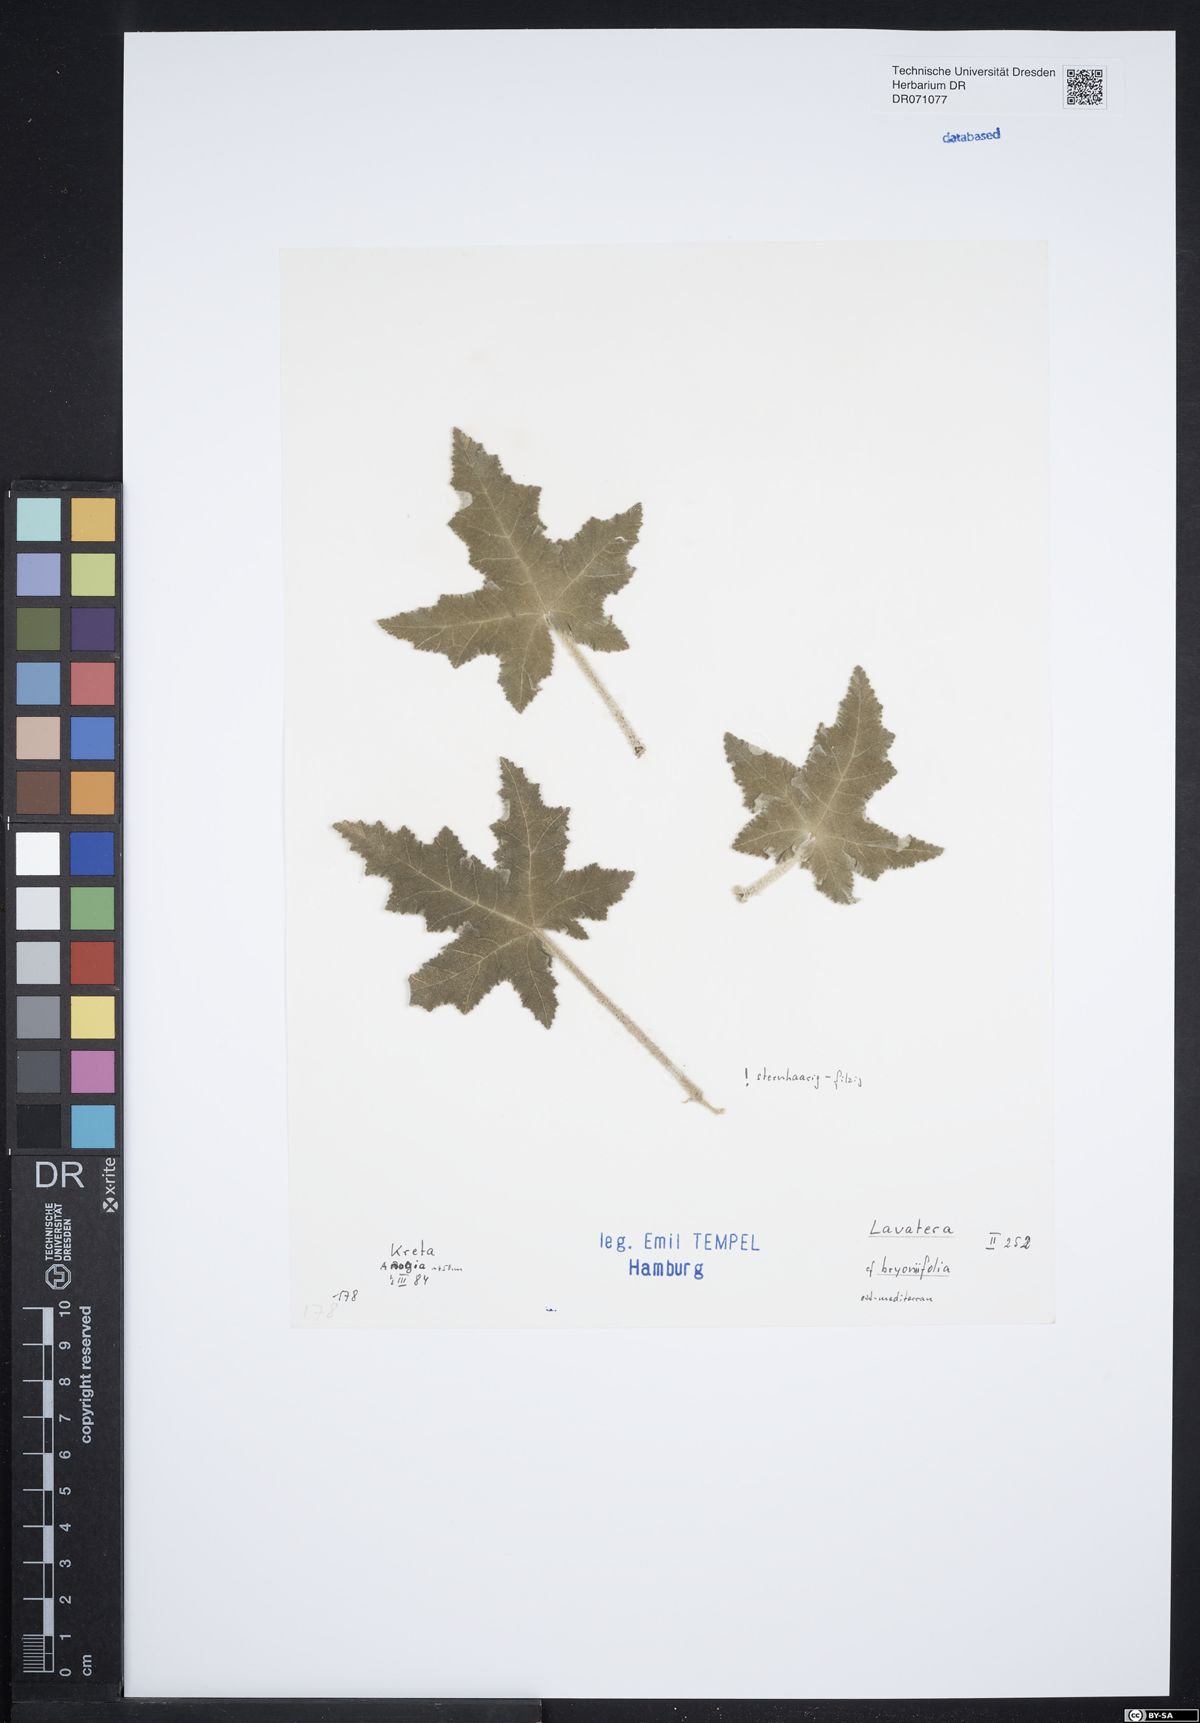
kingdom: Plantae
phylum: Tracheophyta
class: Magnoliopsida
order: Malvales
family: Malvaceae
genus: Malva
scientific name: Malva unguiculata
